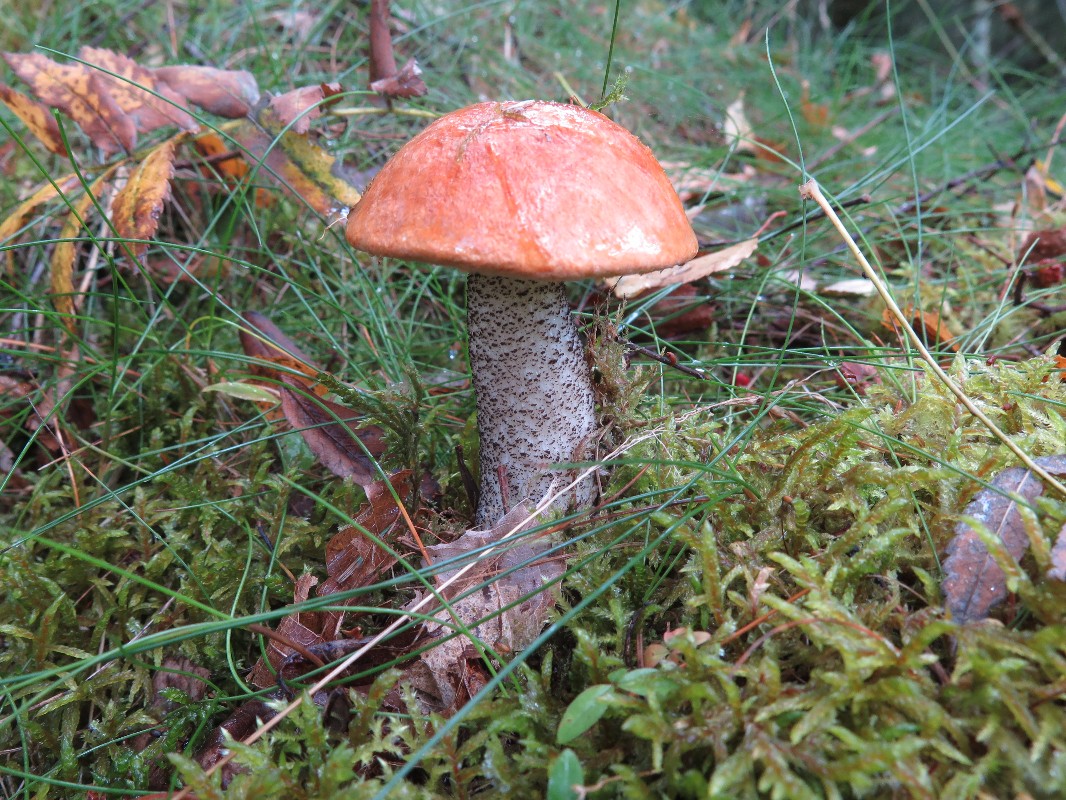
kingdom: Fungi
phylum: Basidiomycota
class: Agaricomycetes
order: Boletales
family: Boletaceae
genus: Leccinum
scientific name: Leccinum versipelle
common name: orange skælrørhat
